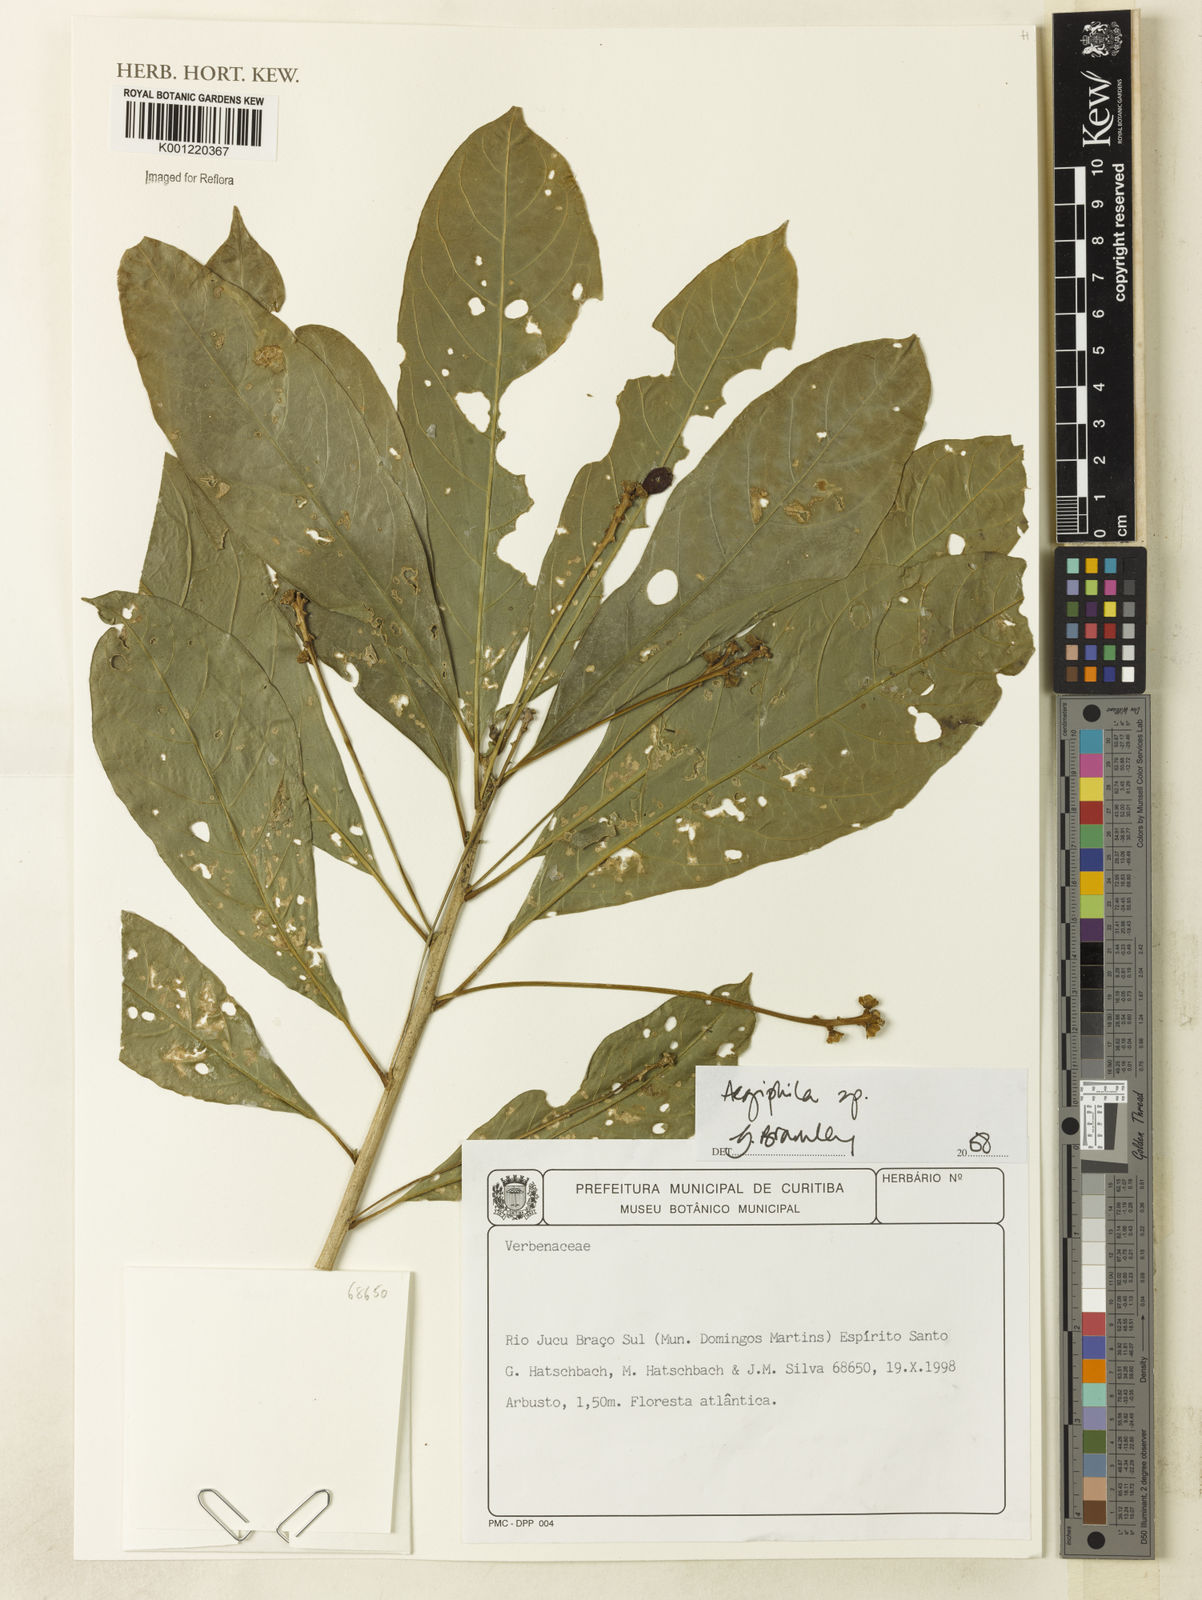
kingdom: Plantae
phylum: Tracheophyta
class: Magnoliopsida
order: Lamiales
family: Lamiaceae
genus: Aegiphila
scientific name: Aegiphila
